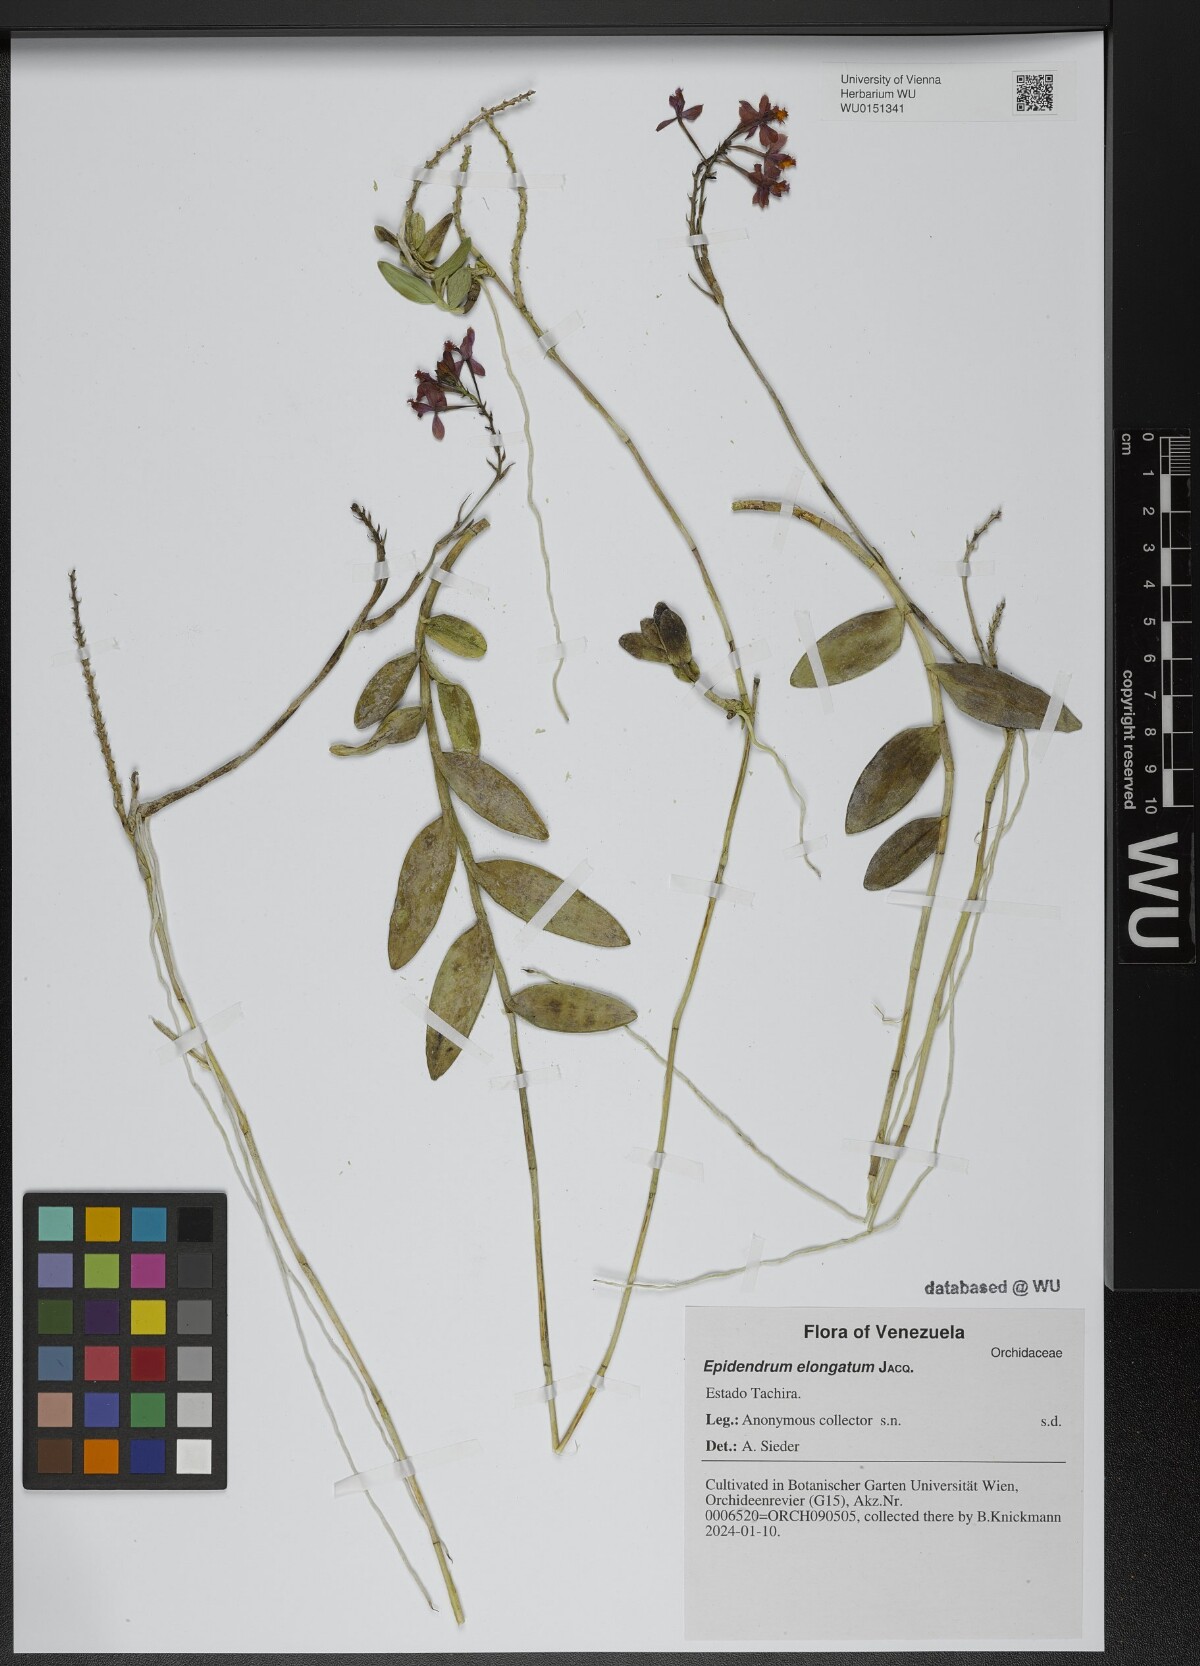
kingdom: Plantae
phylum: Tracheophyta
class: Liliopsida
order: Asparagales
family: Orchidaceae
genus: Epidendrum
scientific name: Epidendrum elongatum
